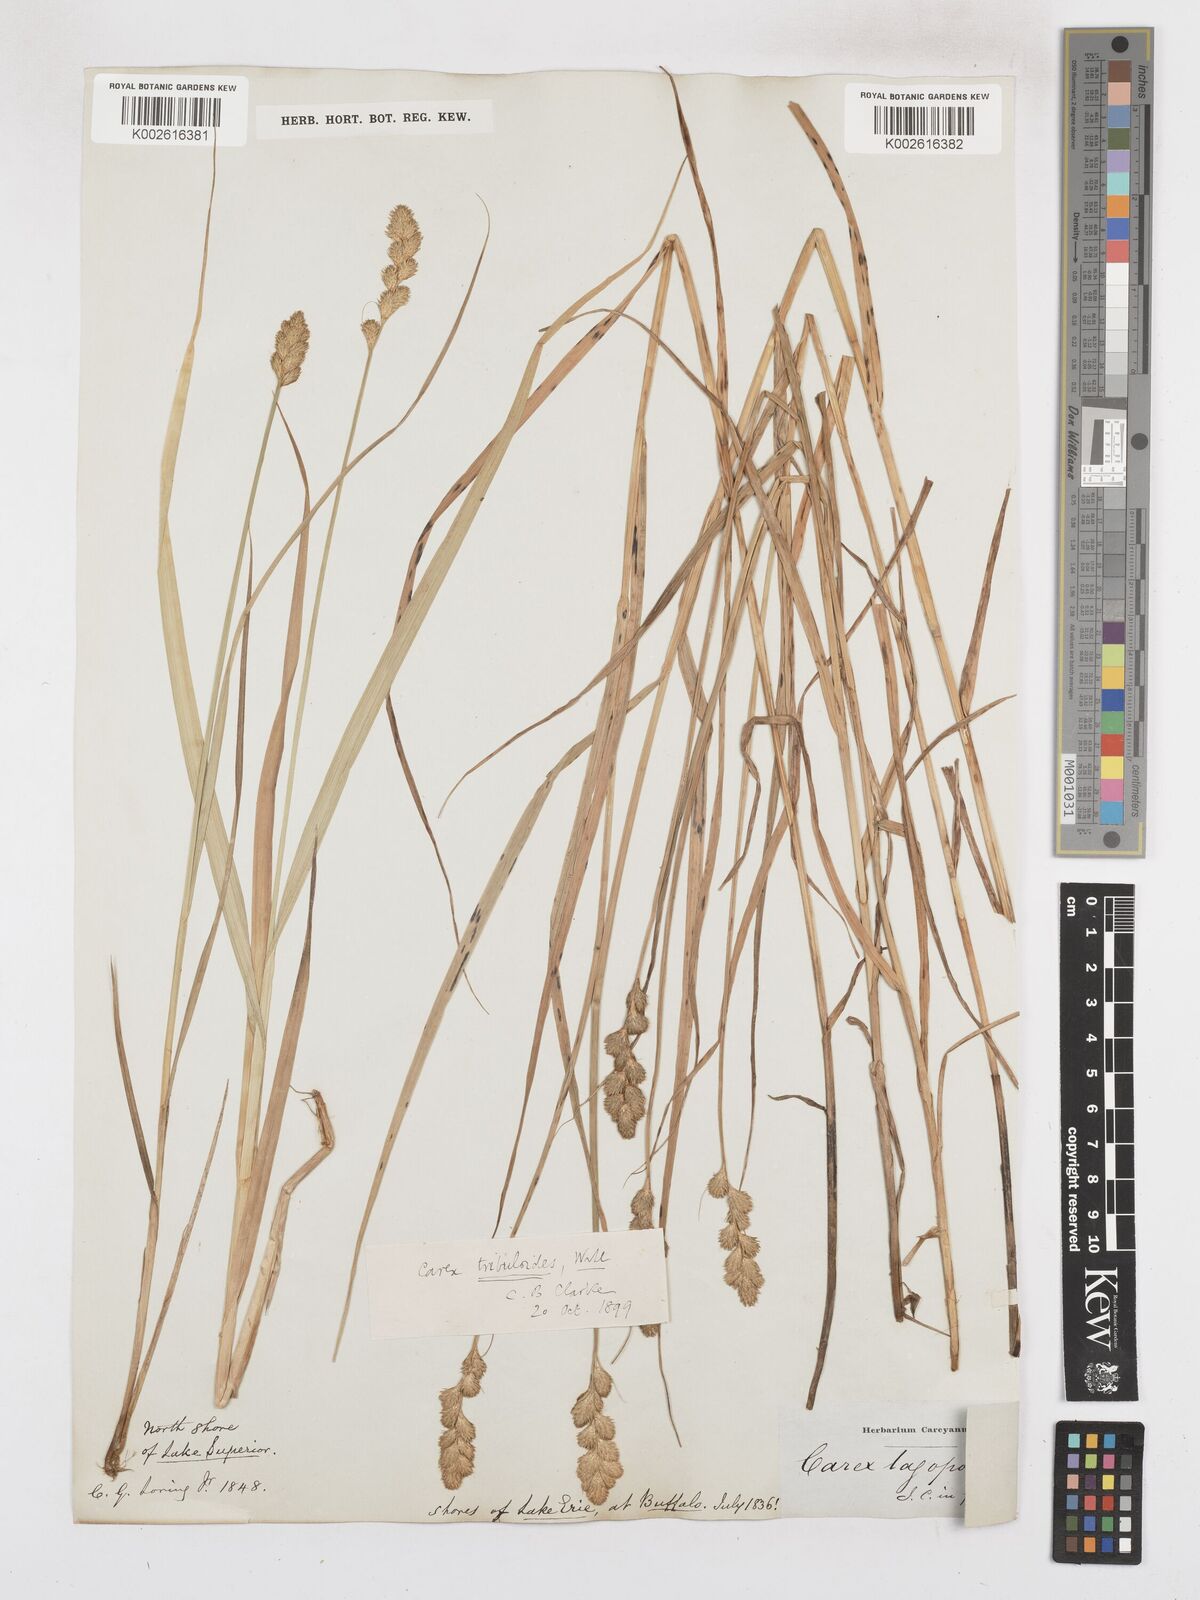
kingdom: Plantae
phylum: Tracheophyta
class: Liliopsida
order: Poales
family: Cyperaceae
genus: Carex
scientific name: Carex tribuloides
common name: Blunt broom sedge
